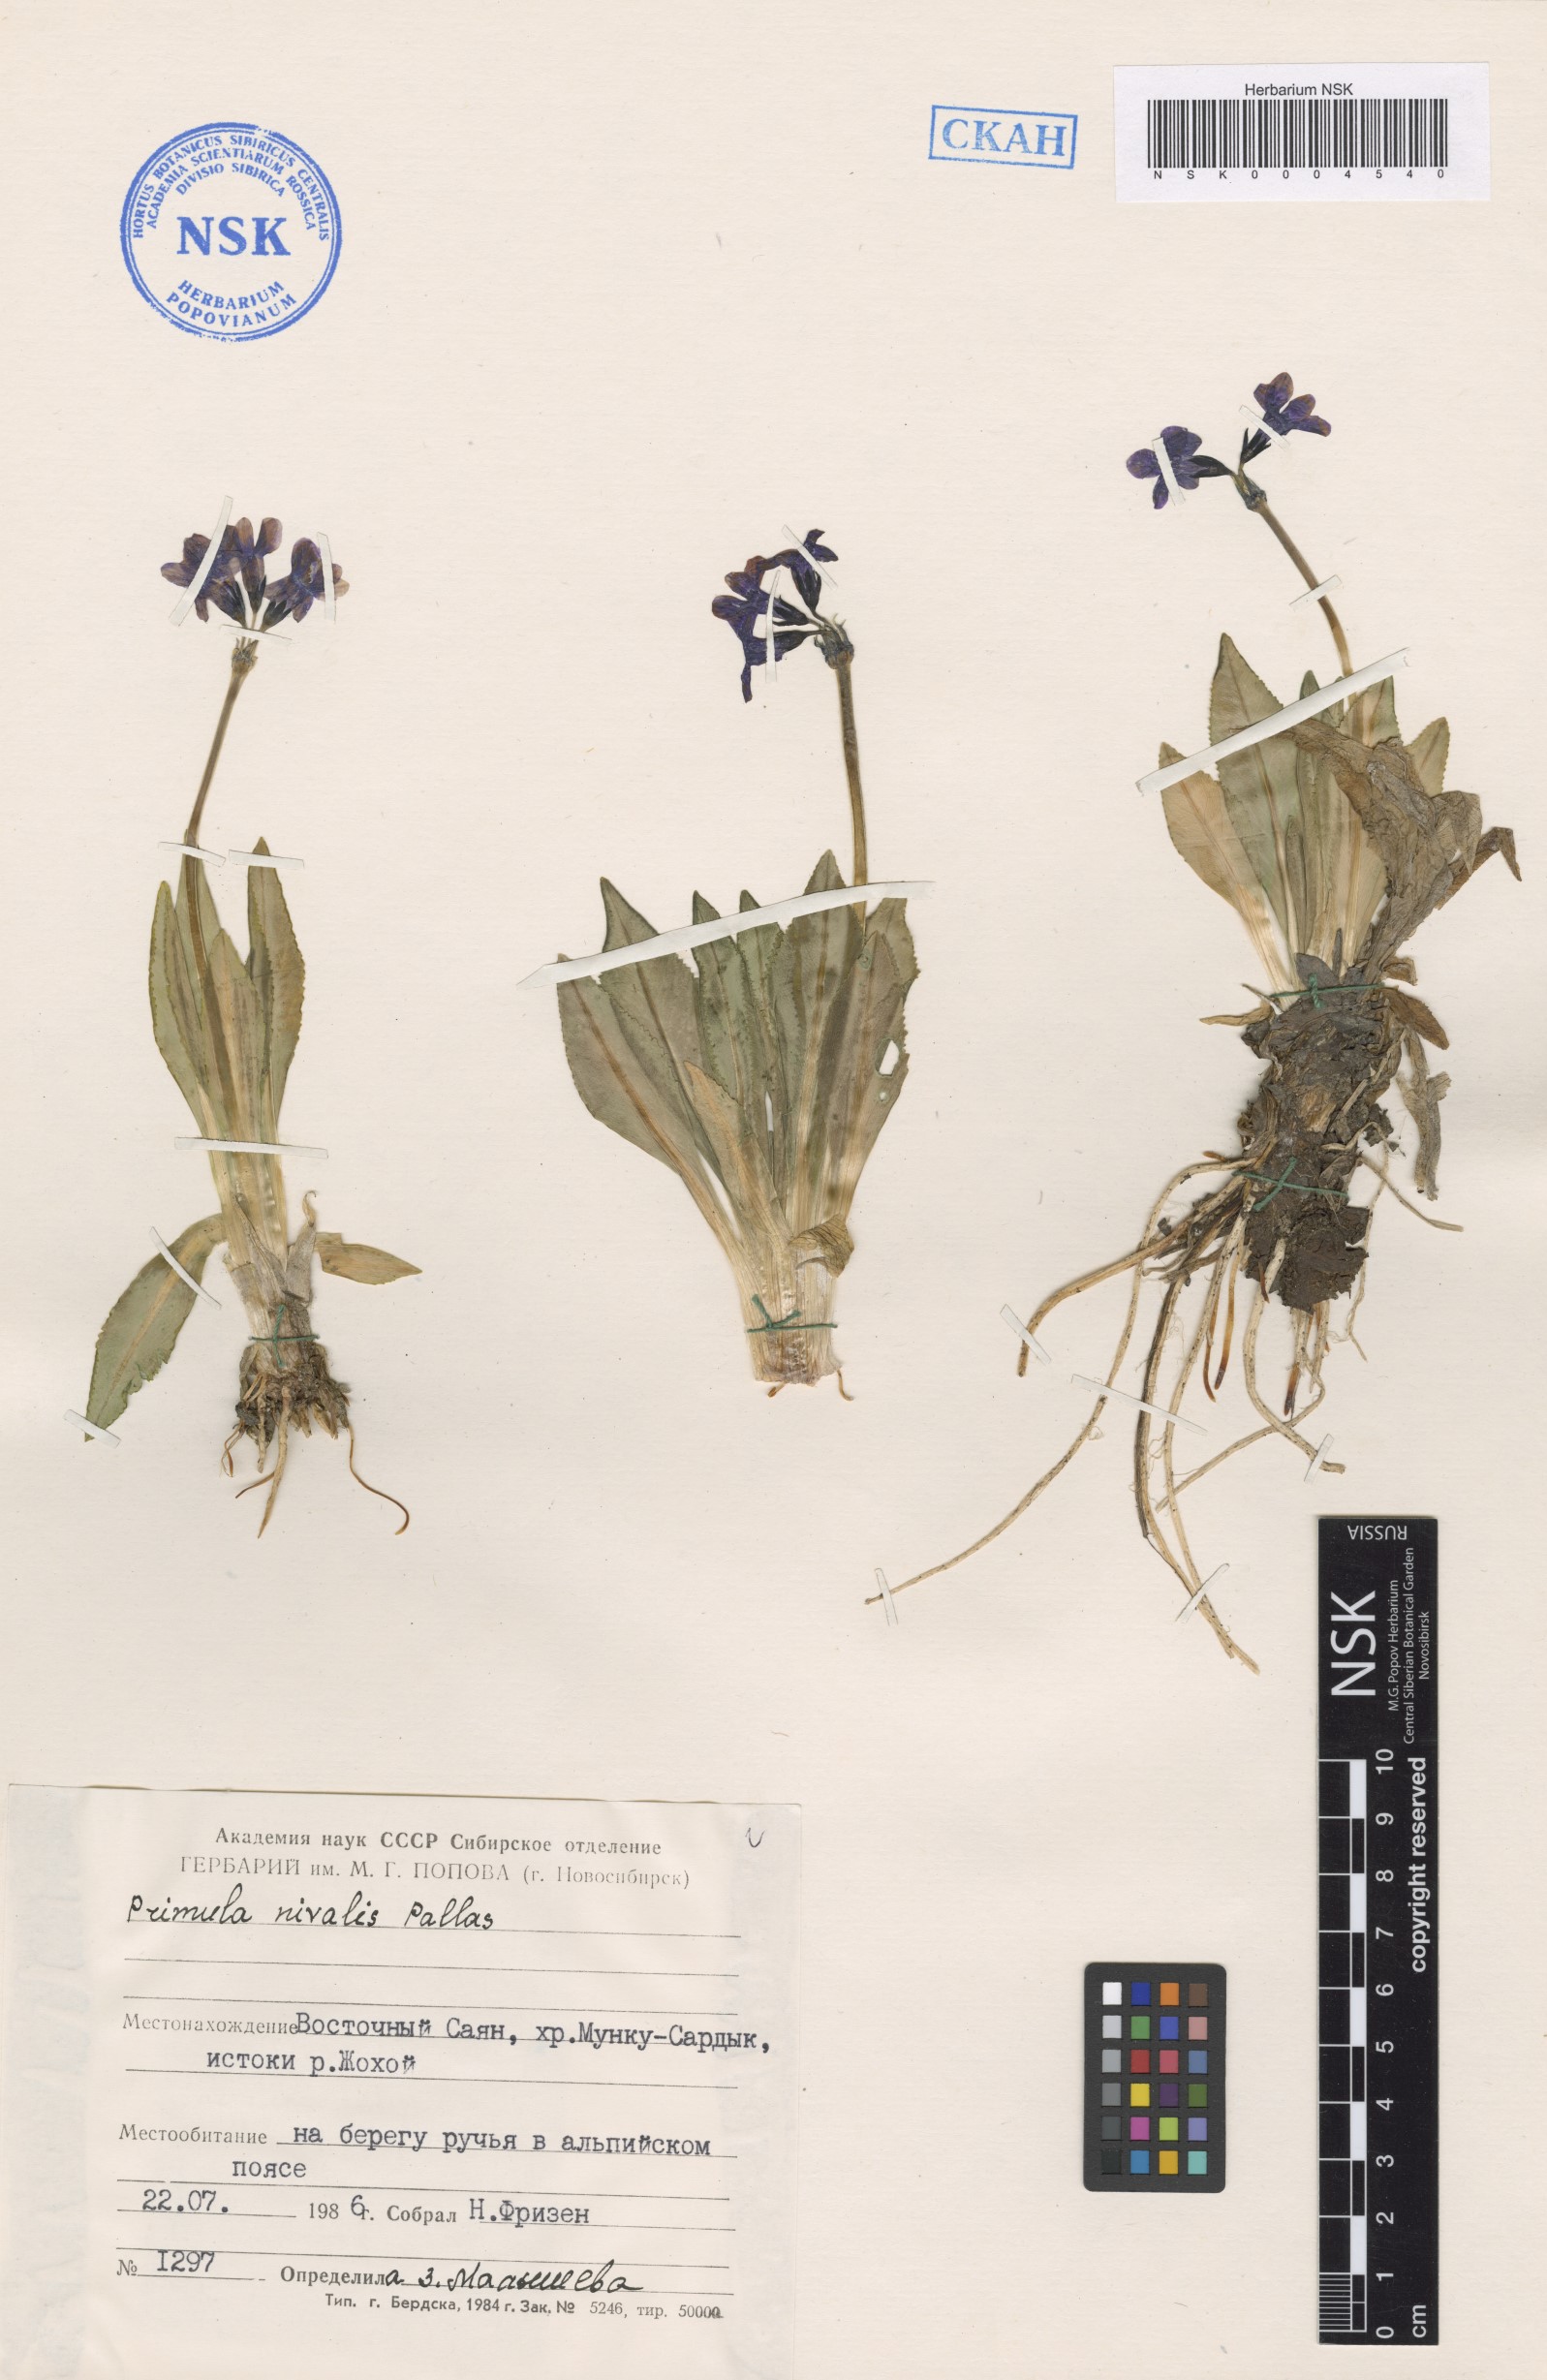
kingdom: Plantae
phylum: Tracheophyta
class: Magnoliopsida
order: Ericales
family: Primulaceae
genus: Primula
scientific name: Primula nivalis
